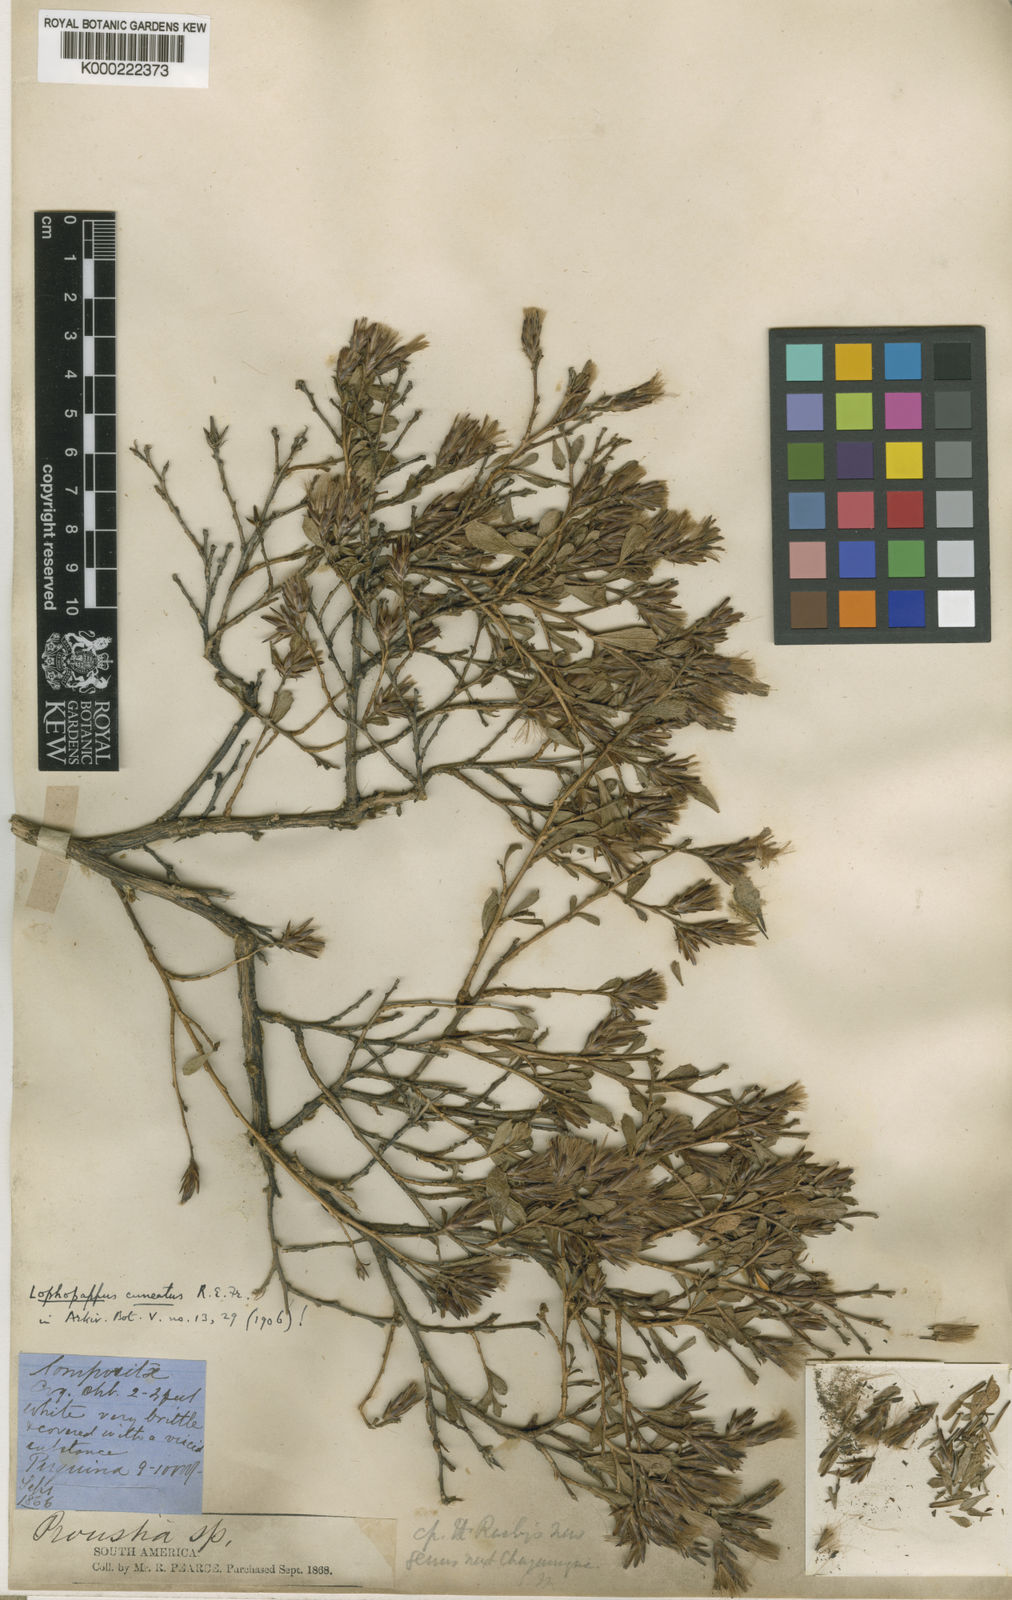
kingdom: Plantae
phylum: Tracheophyta
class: Magnoliopsida
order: Asterales
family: Asteraceae
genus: Lophopappus
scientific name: Lophopappus cuneatus
